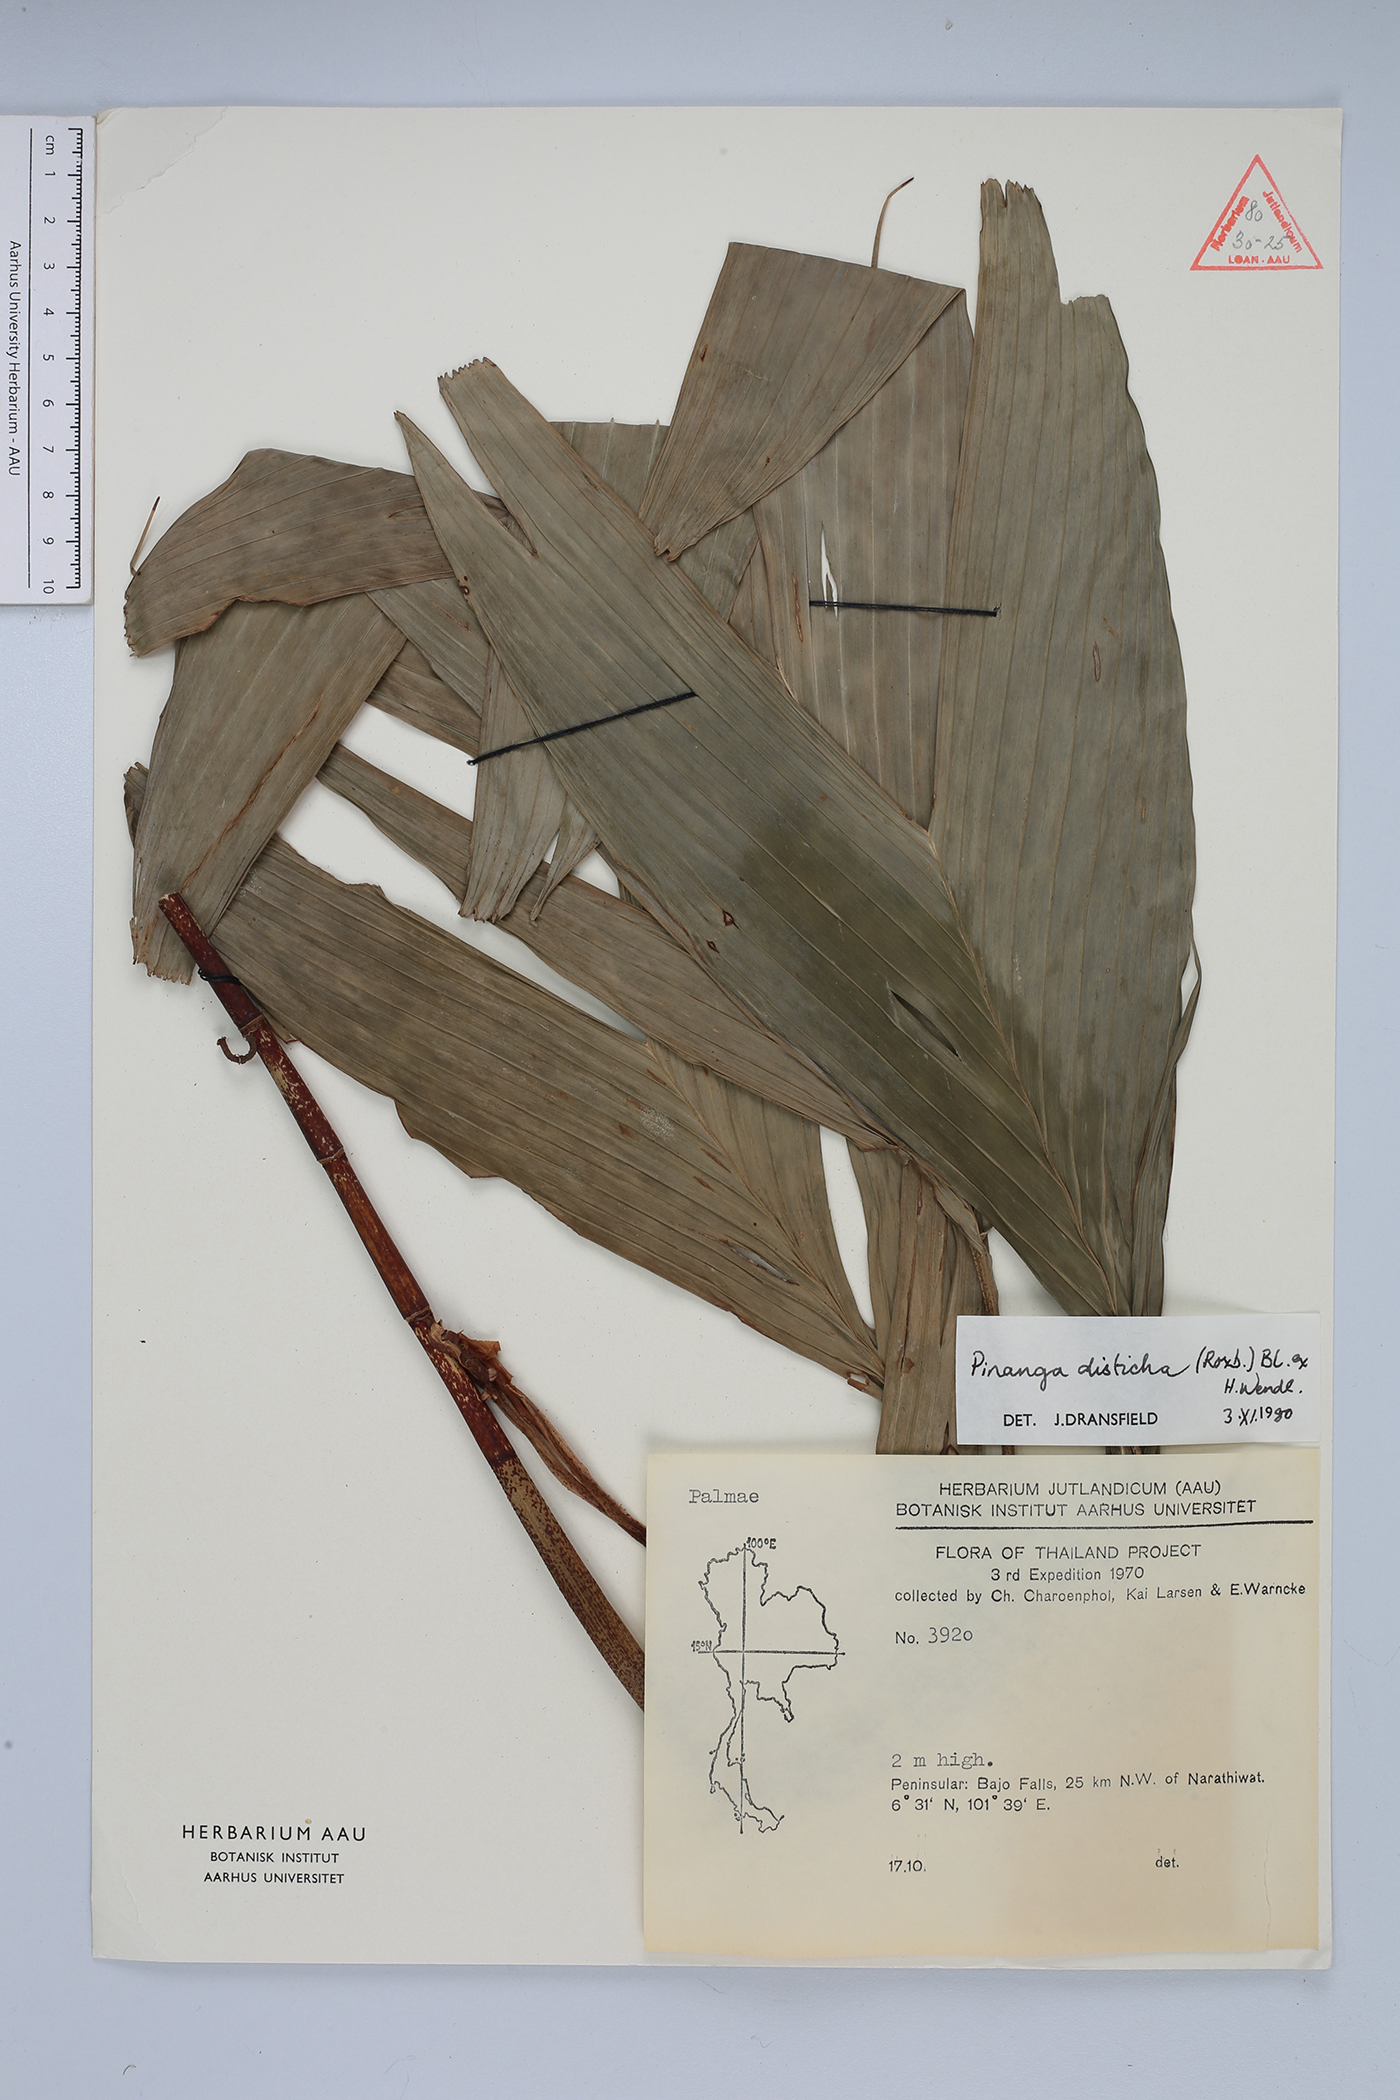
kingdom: Plantae
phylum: Tracheophyta
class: Liliopsida
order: Arecales
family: Arecaceae
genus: Pinanga
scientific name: Pinanga disticha
